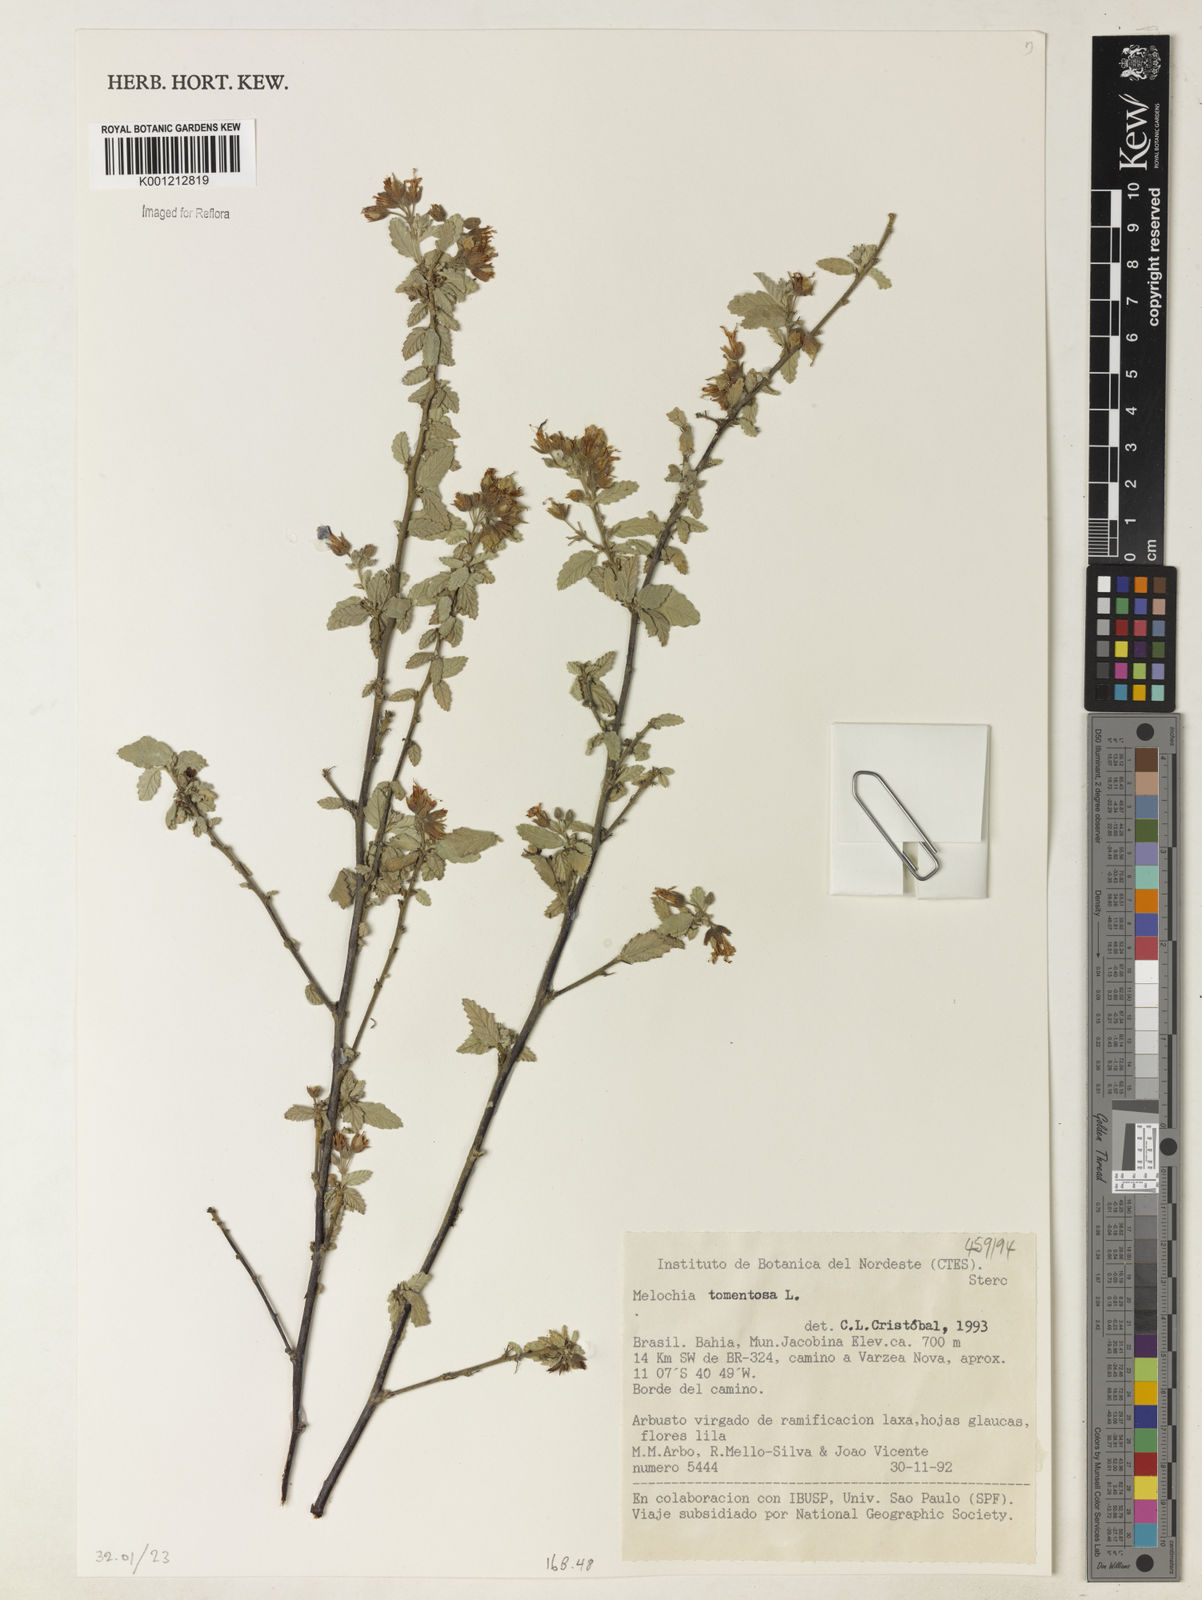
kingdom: Plantae
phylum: Tracheophyta
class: Magnoliopsida
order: Malvales
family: Malvaceae
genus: Melochia
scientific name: Melochia tomentosa
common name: Black torch
